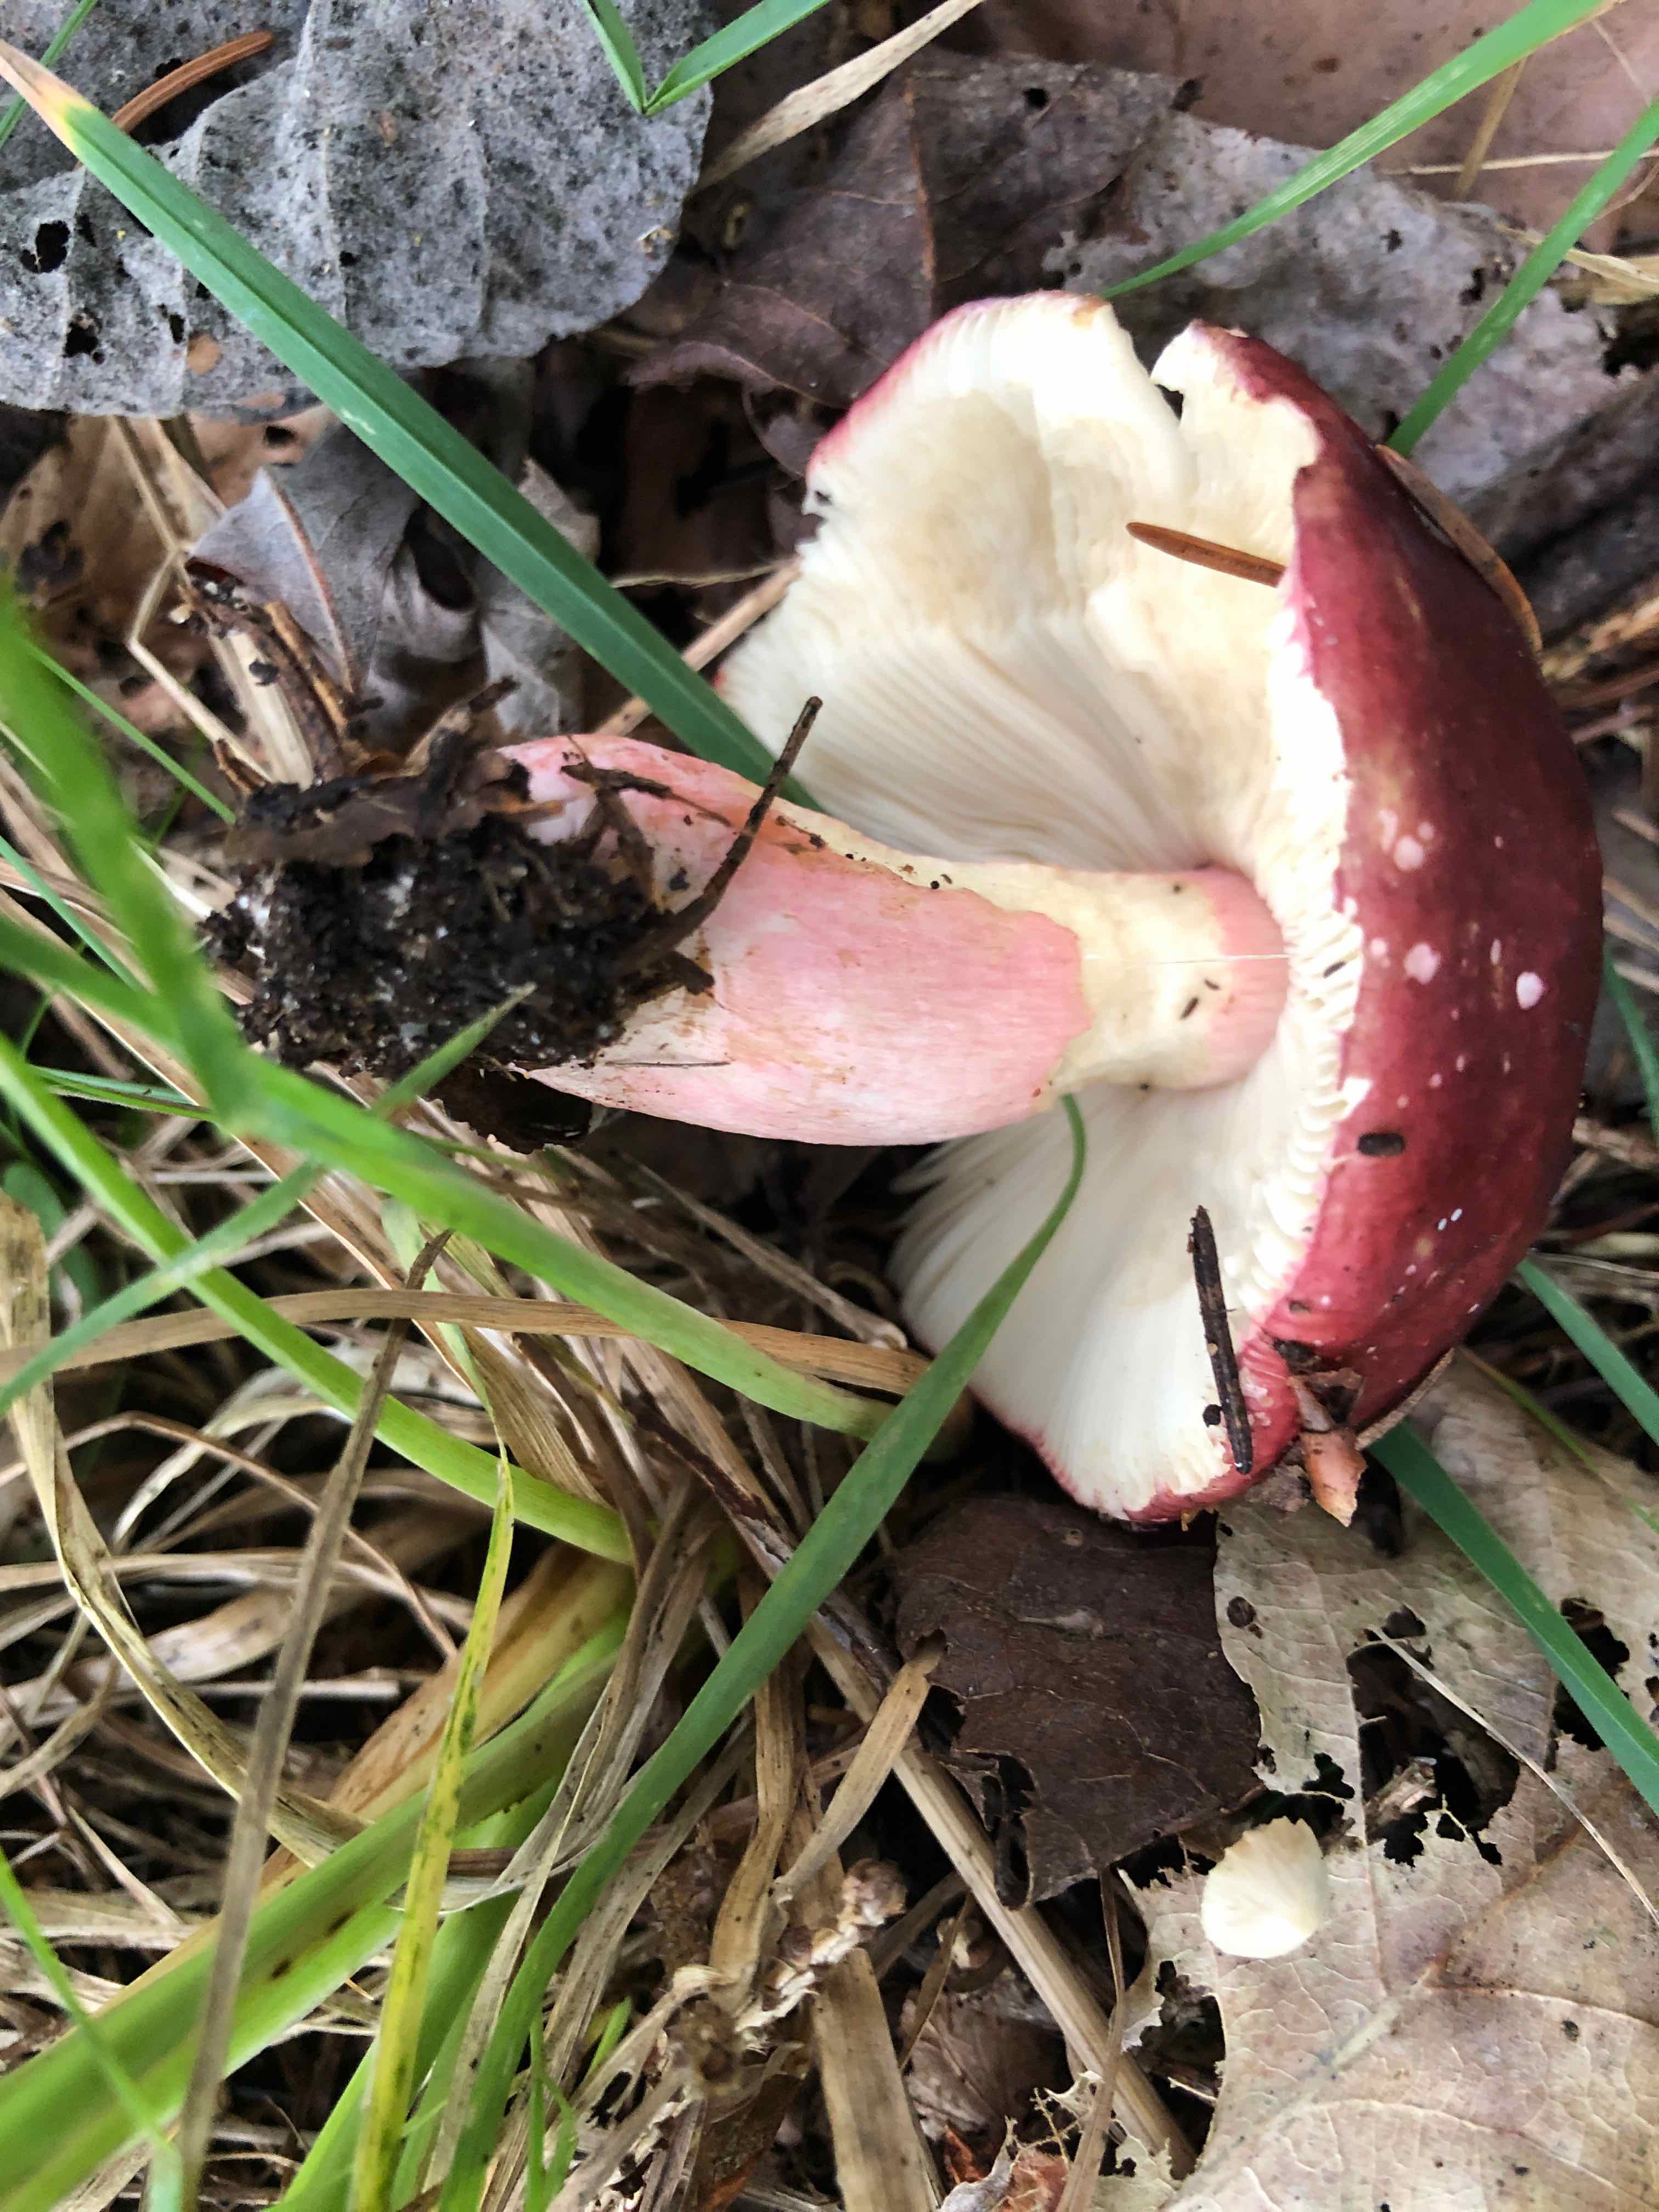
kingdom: Fungi
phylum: Basidiomycota
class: Agaricomycetes
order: Russulales
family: Russulaceae
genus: Russula
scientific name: Russula queletii
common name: Quélets skørhat
